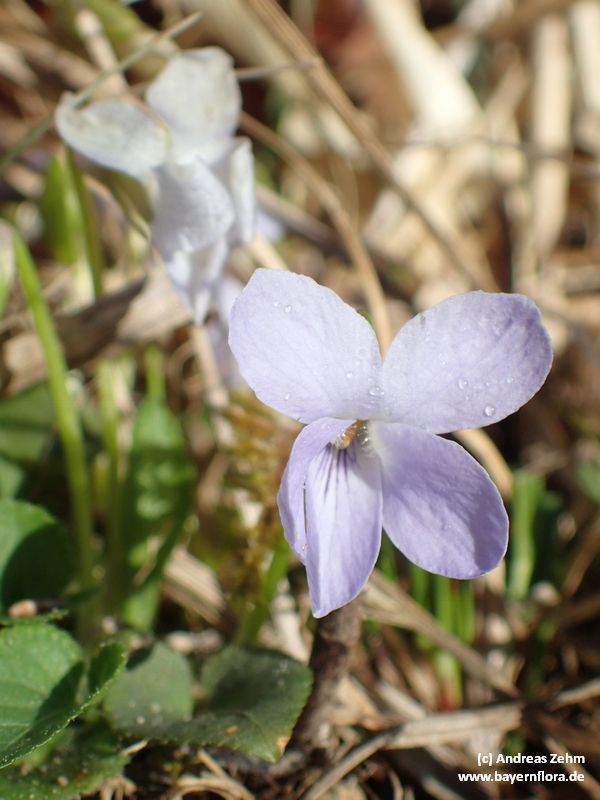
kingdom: Plantae
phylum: Tracheophyta
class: Magnoliopsida
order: Malpighiales
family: Violaceae
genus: Viola
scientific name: Viola hirta
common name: Hairy violet
